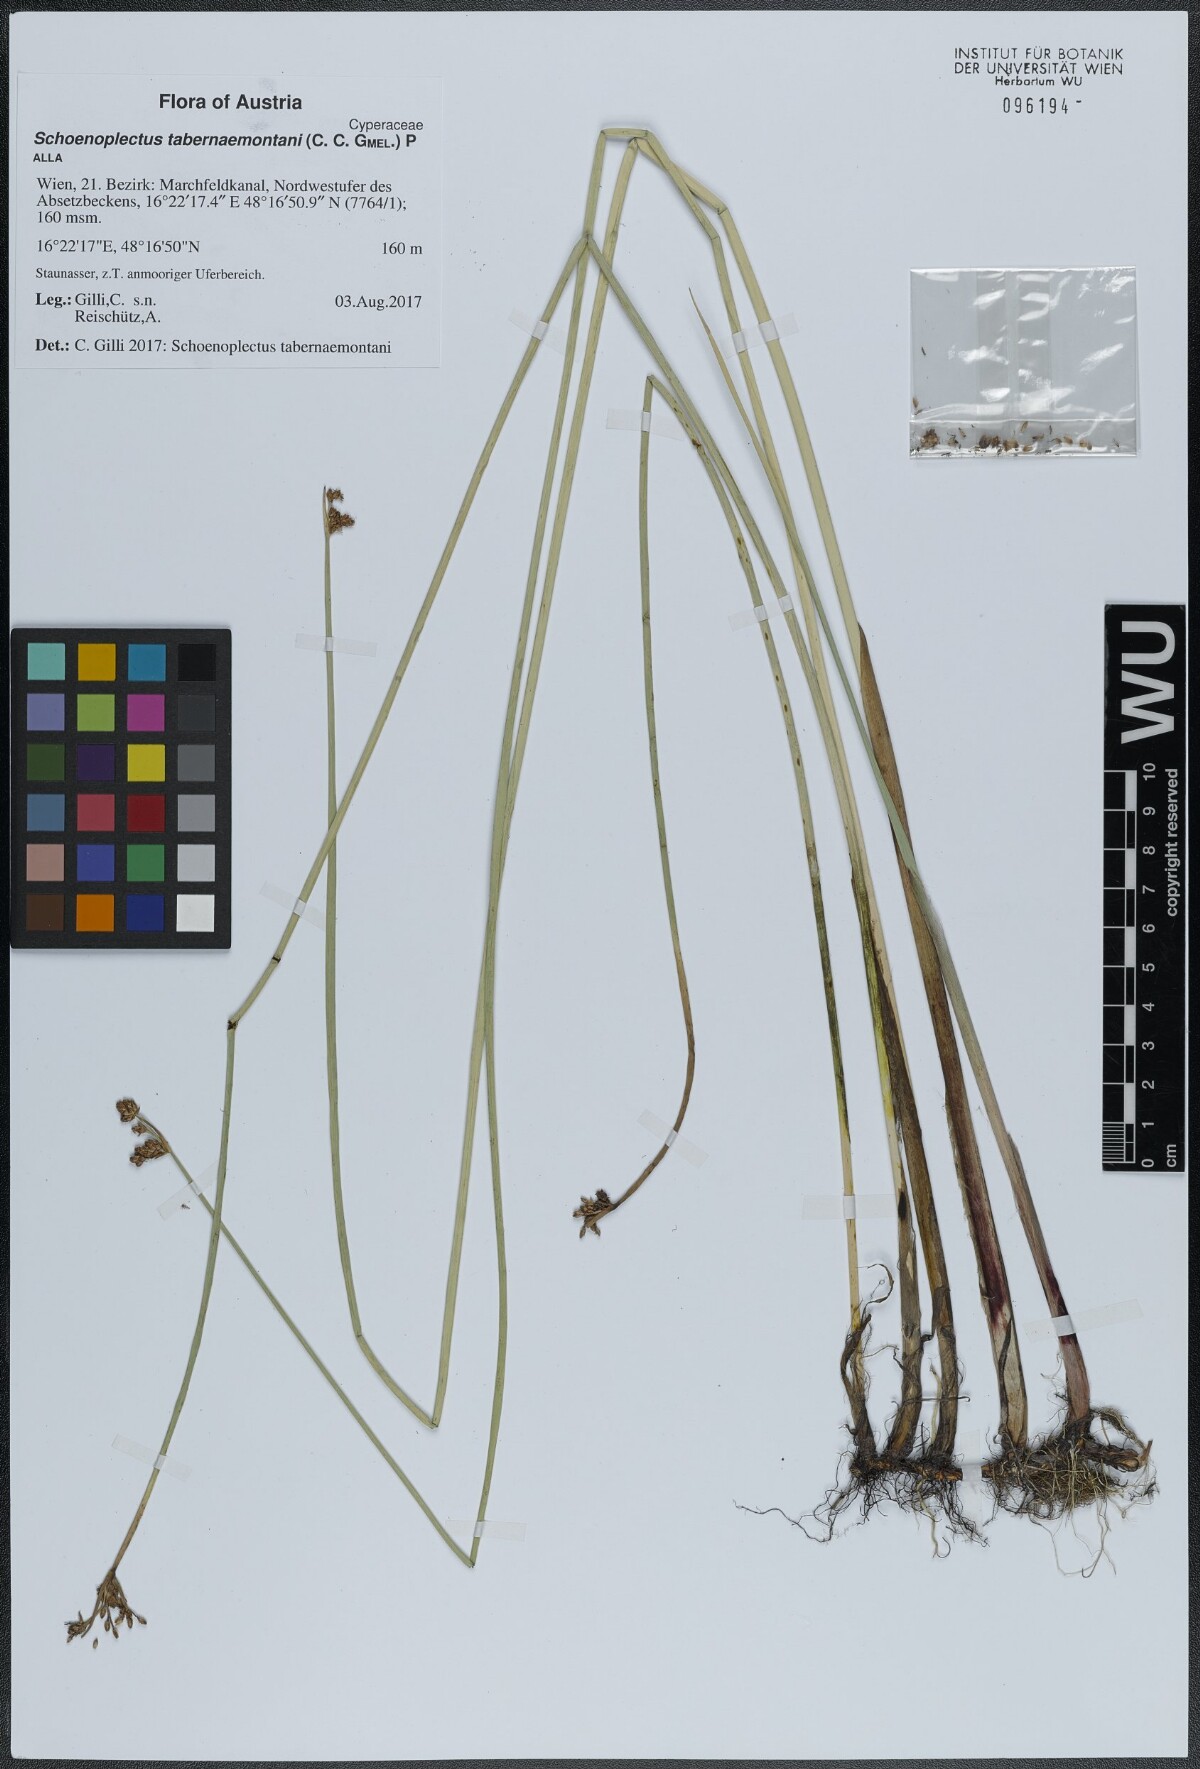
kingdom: Plantae
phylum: Tracheophyta
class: Liliopsida
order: Poales
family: Cyperaceae
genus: Schoenoplectus
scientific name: Schoenoplectus tabernaemontani
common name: Grey club-rush
